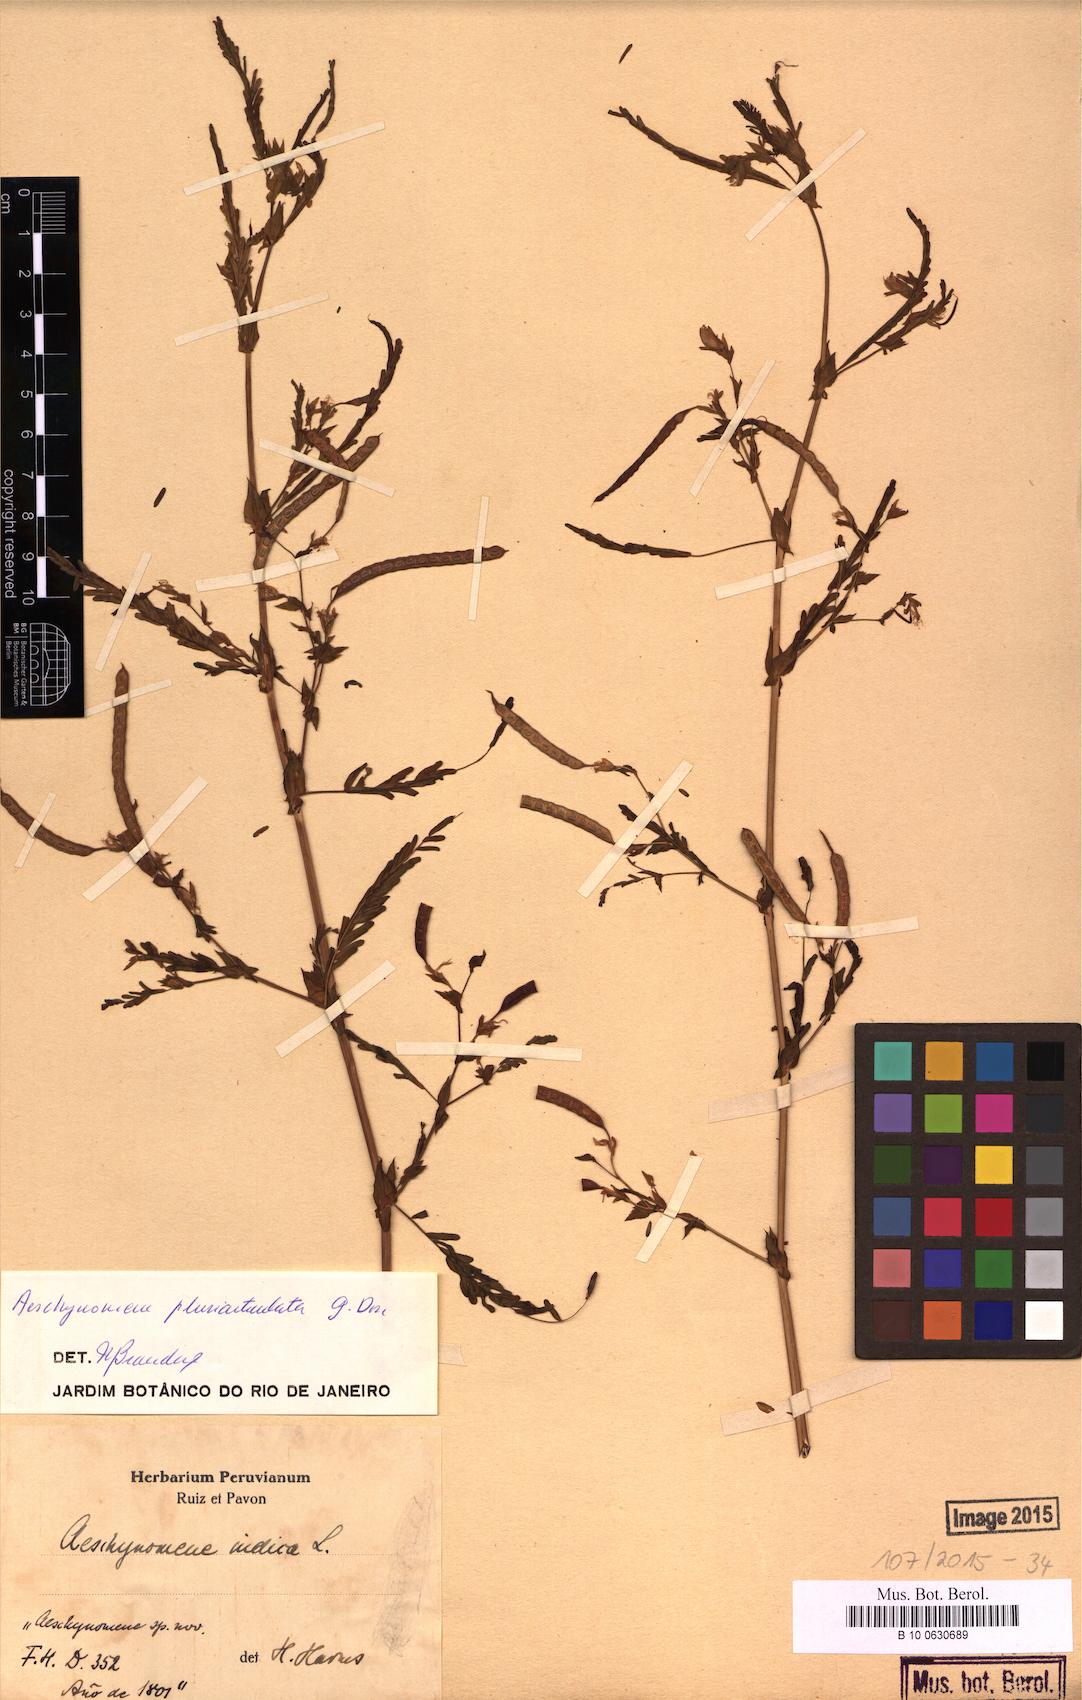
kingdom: Plantae
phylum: Tracheophyta
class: Magnoliopsida
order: Fabales
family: Fabaceae
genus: Aeschynomene
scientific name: Aeschynomene pluriarticulata
